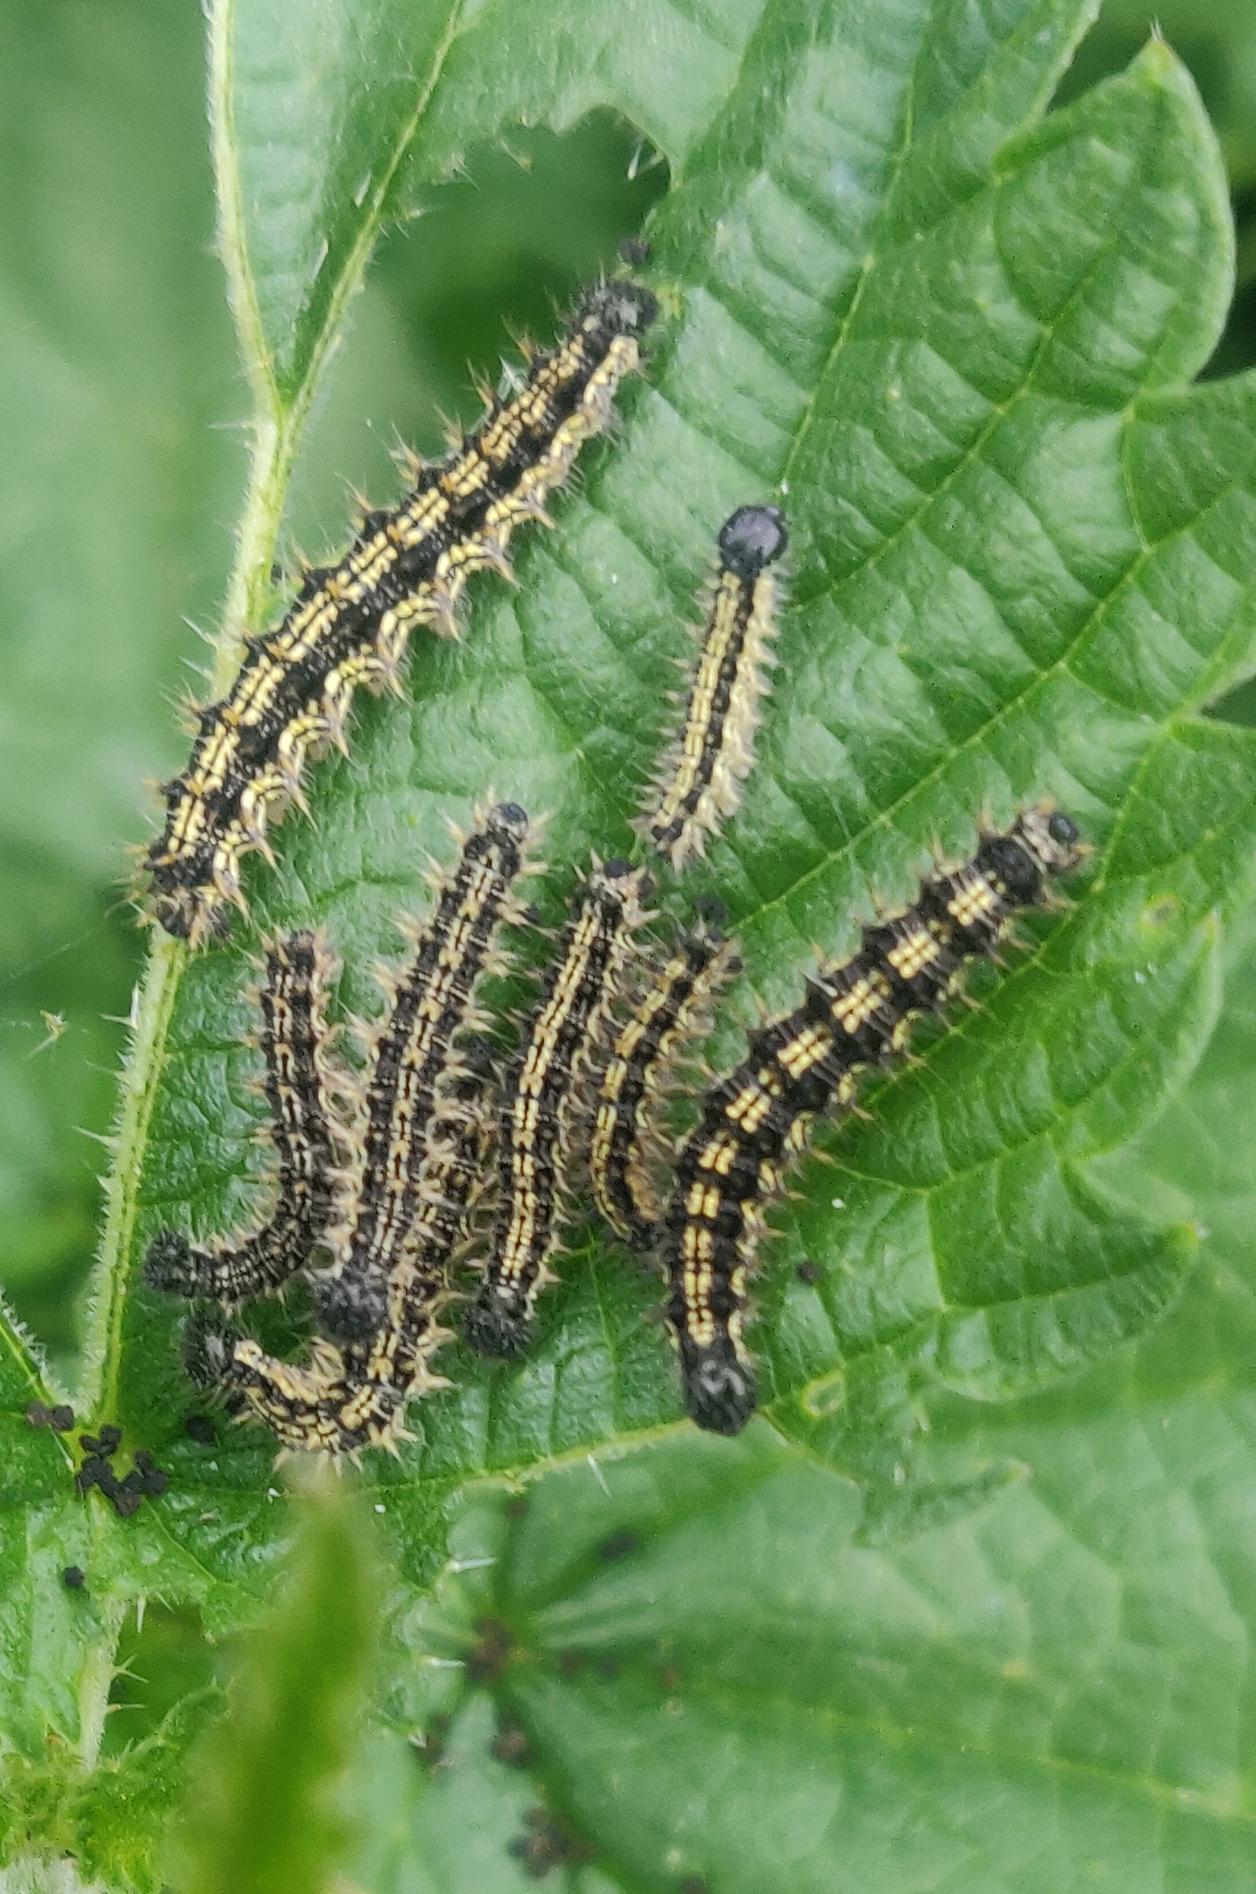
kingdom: Animalia
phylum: Arthropoda
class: Insecta
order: Lepidoptera
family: Nymphalidae
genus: Aglais
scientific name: Aglais urticae
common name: Nældens takvinge
